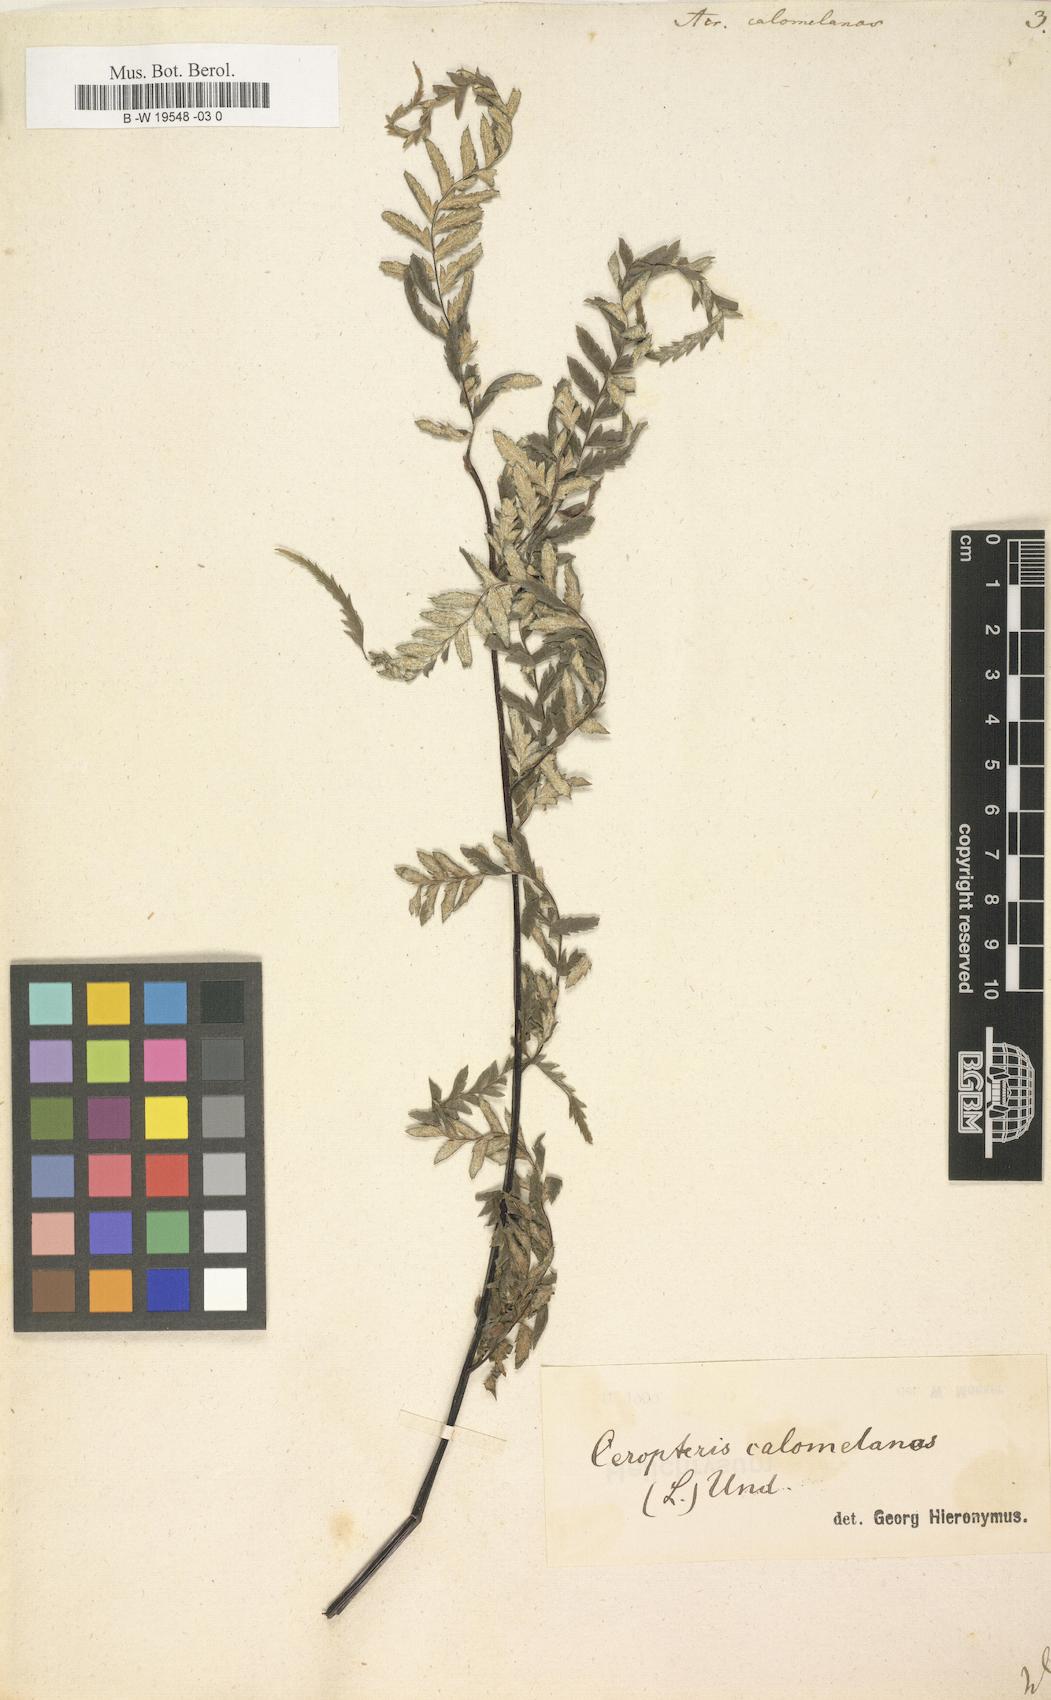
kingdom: Plantae
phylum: Tracheophyta
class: Polypodiopsida
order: Polypodiales
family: Pteridaceae
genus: Pityrogramma
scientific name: Pityrogramma calomelanos
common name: Dixie silverback fern
